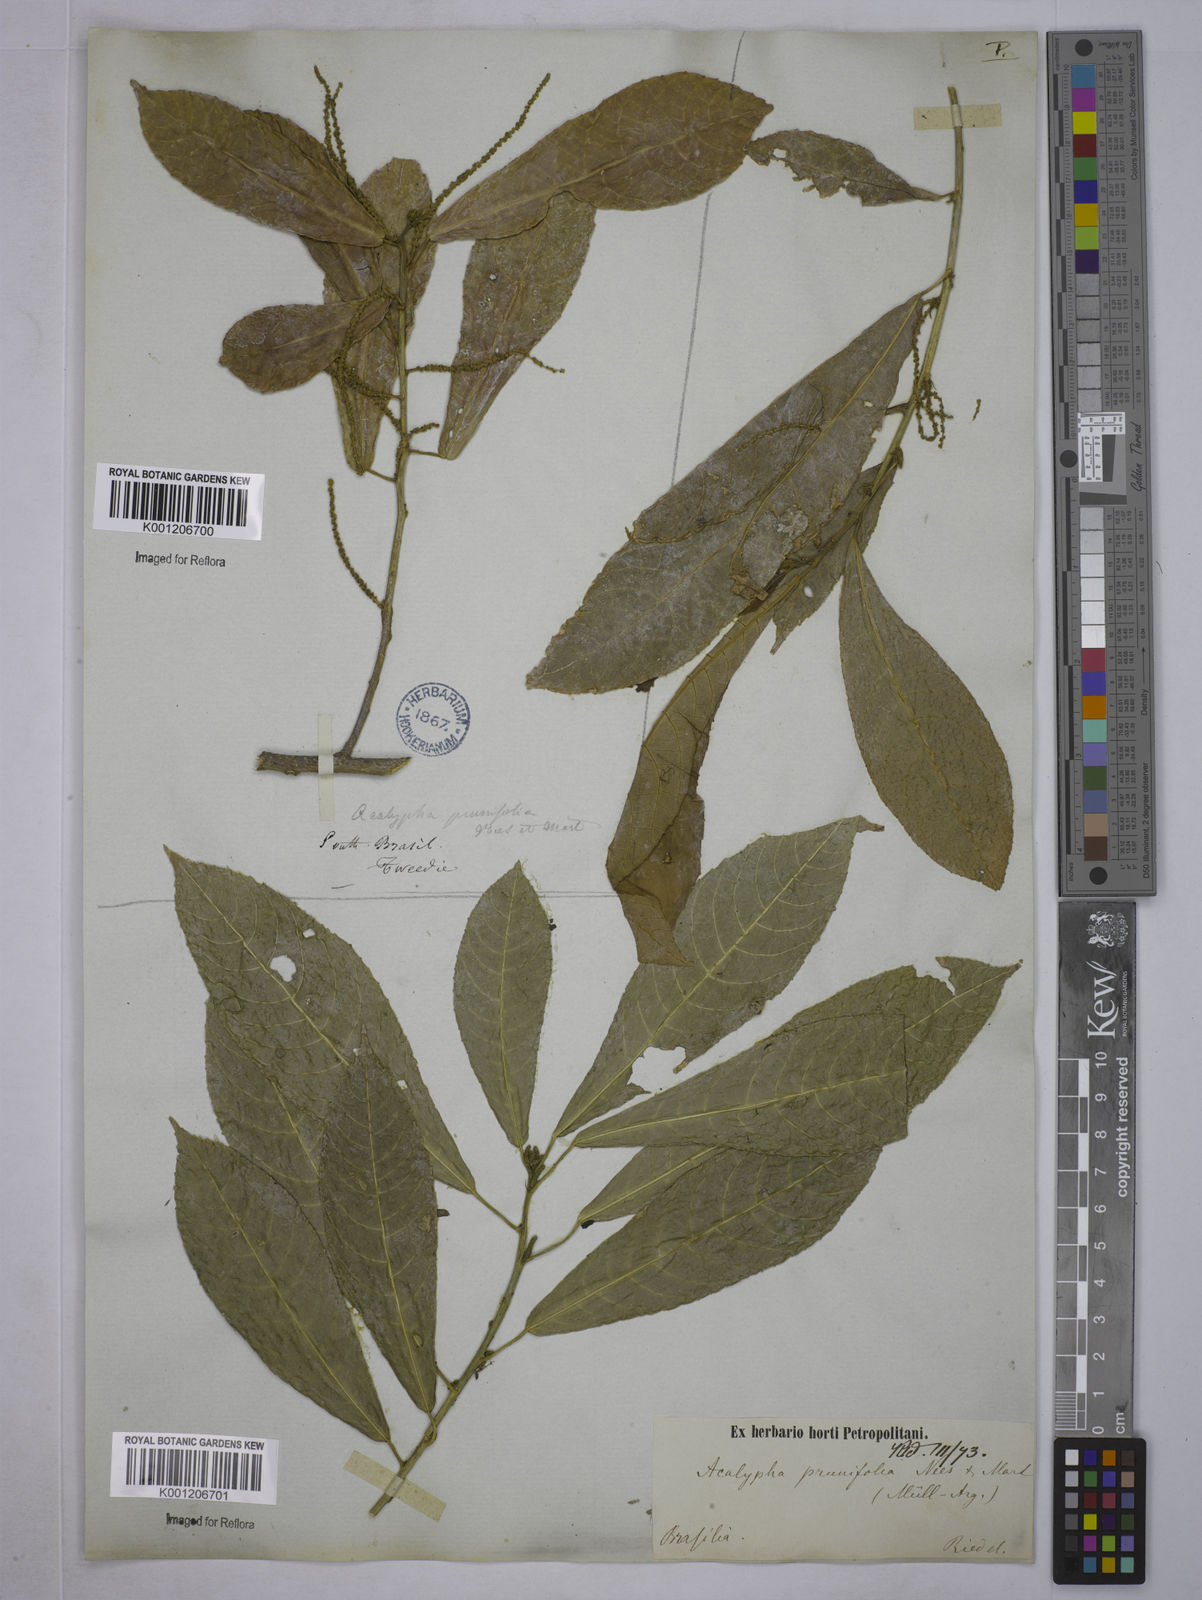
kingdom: Plantae
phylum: Tracheophyta
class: Magnoliopsida
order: Malpighiales
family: Euphorbiaceae
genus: Acalypha
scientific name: Acalypha klotzschii
